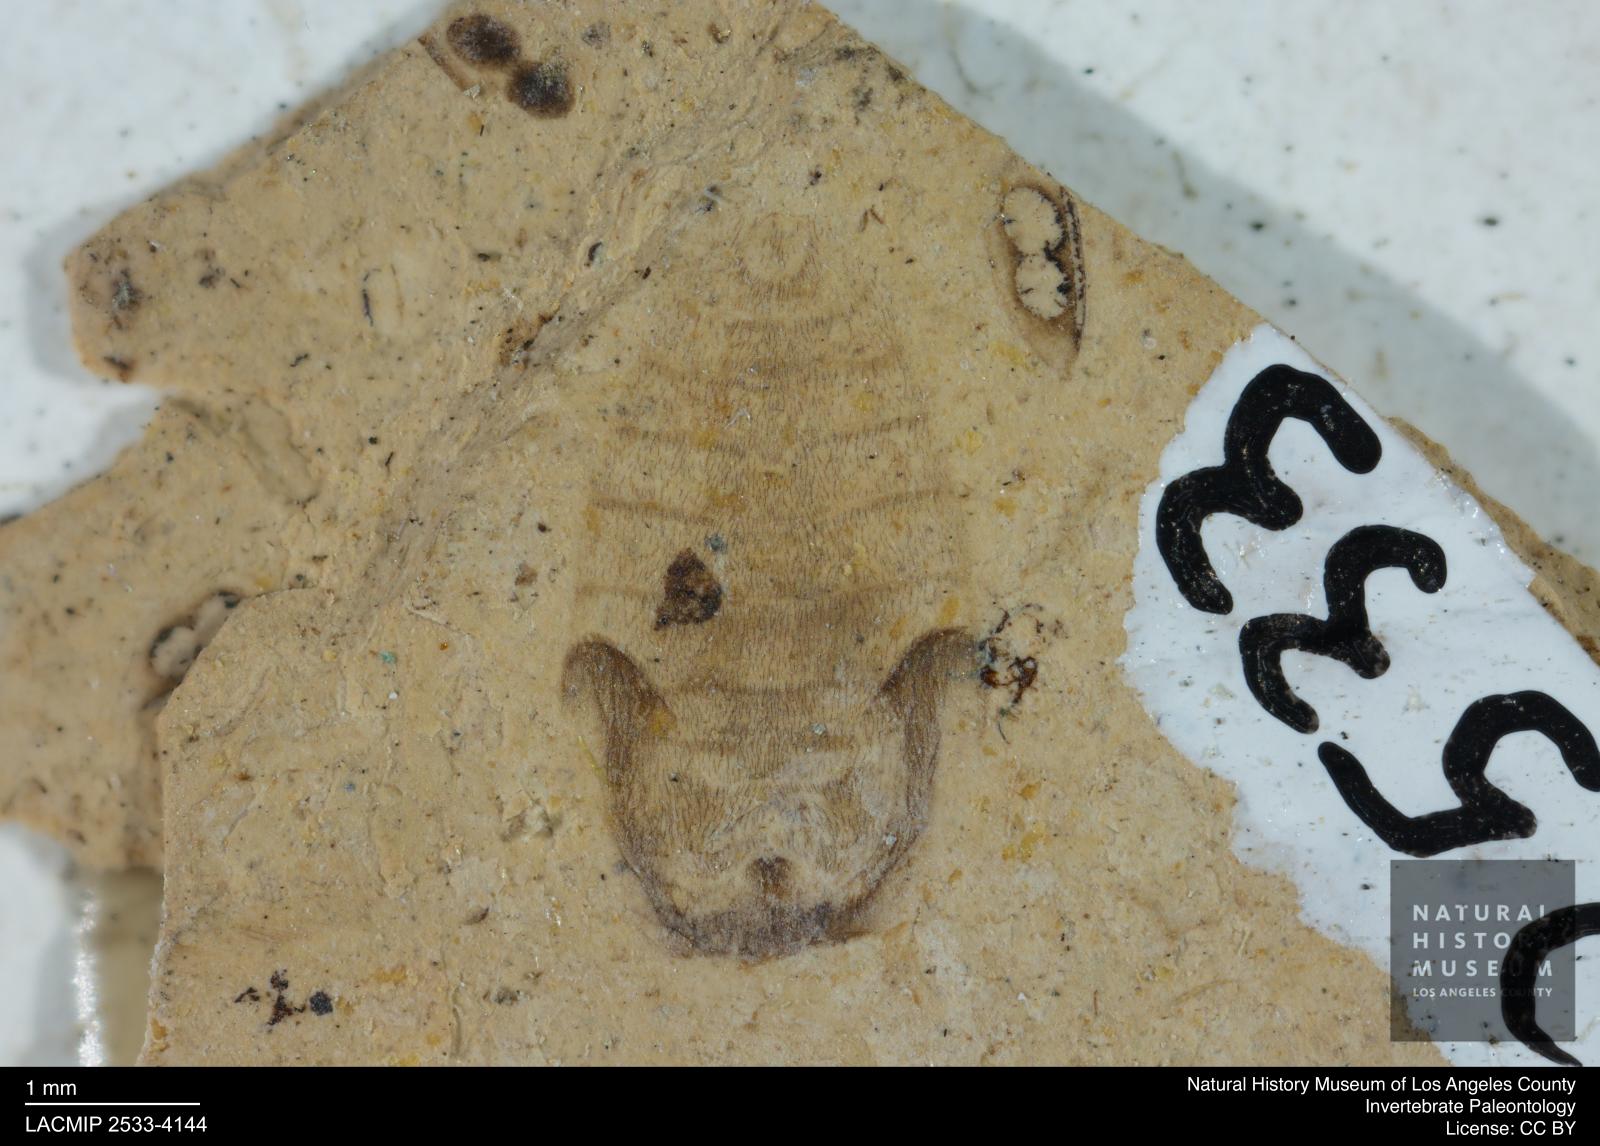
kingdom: Animalia
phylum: Arthropoda
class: Insecta
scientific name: Insecta
